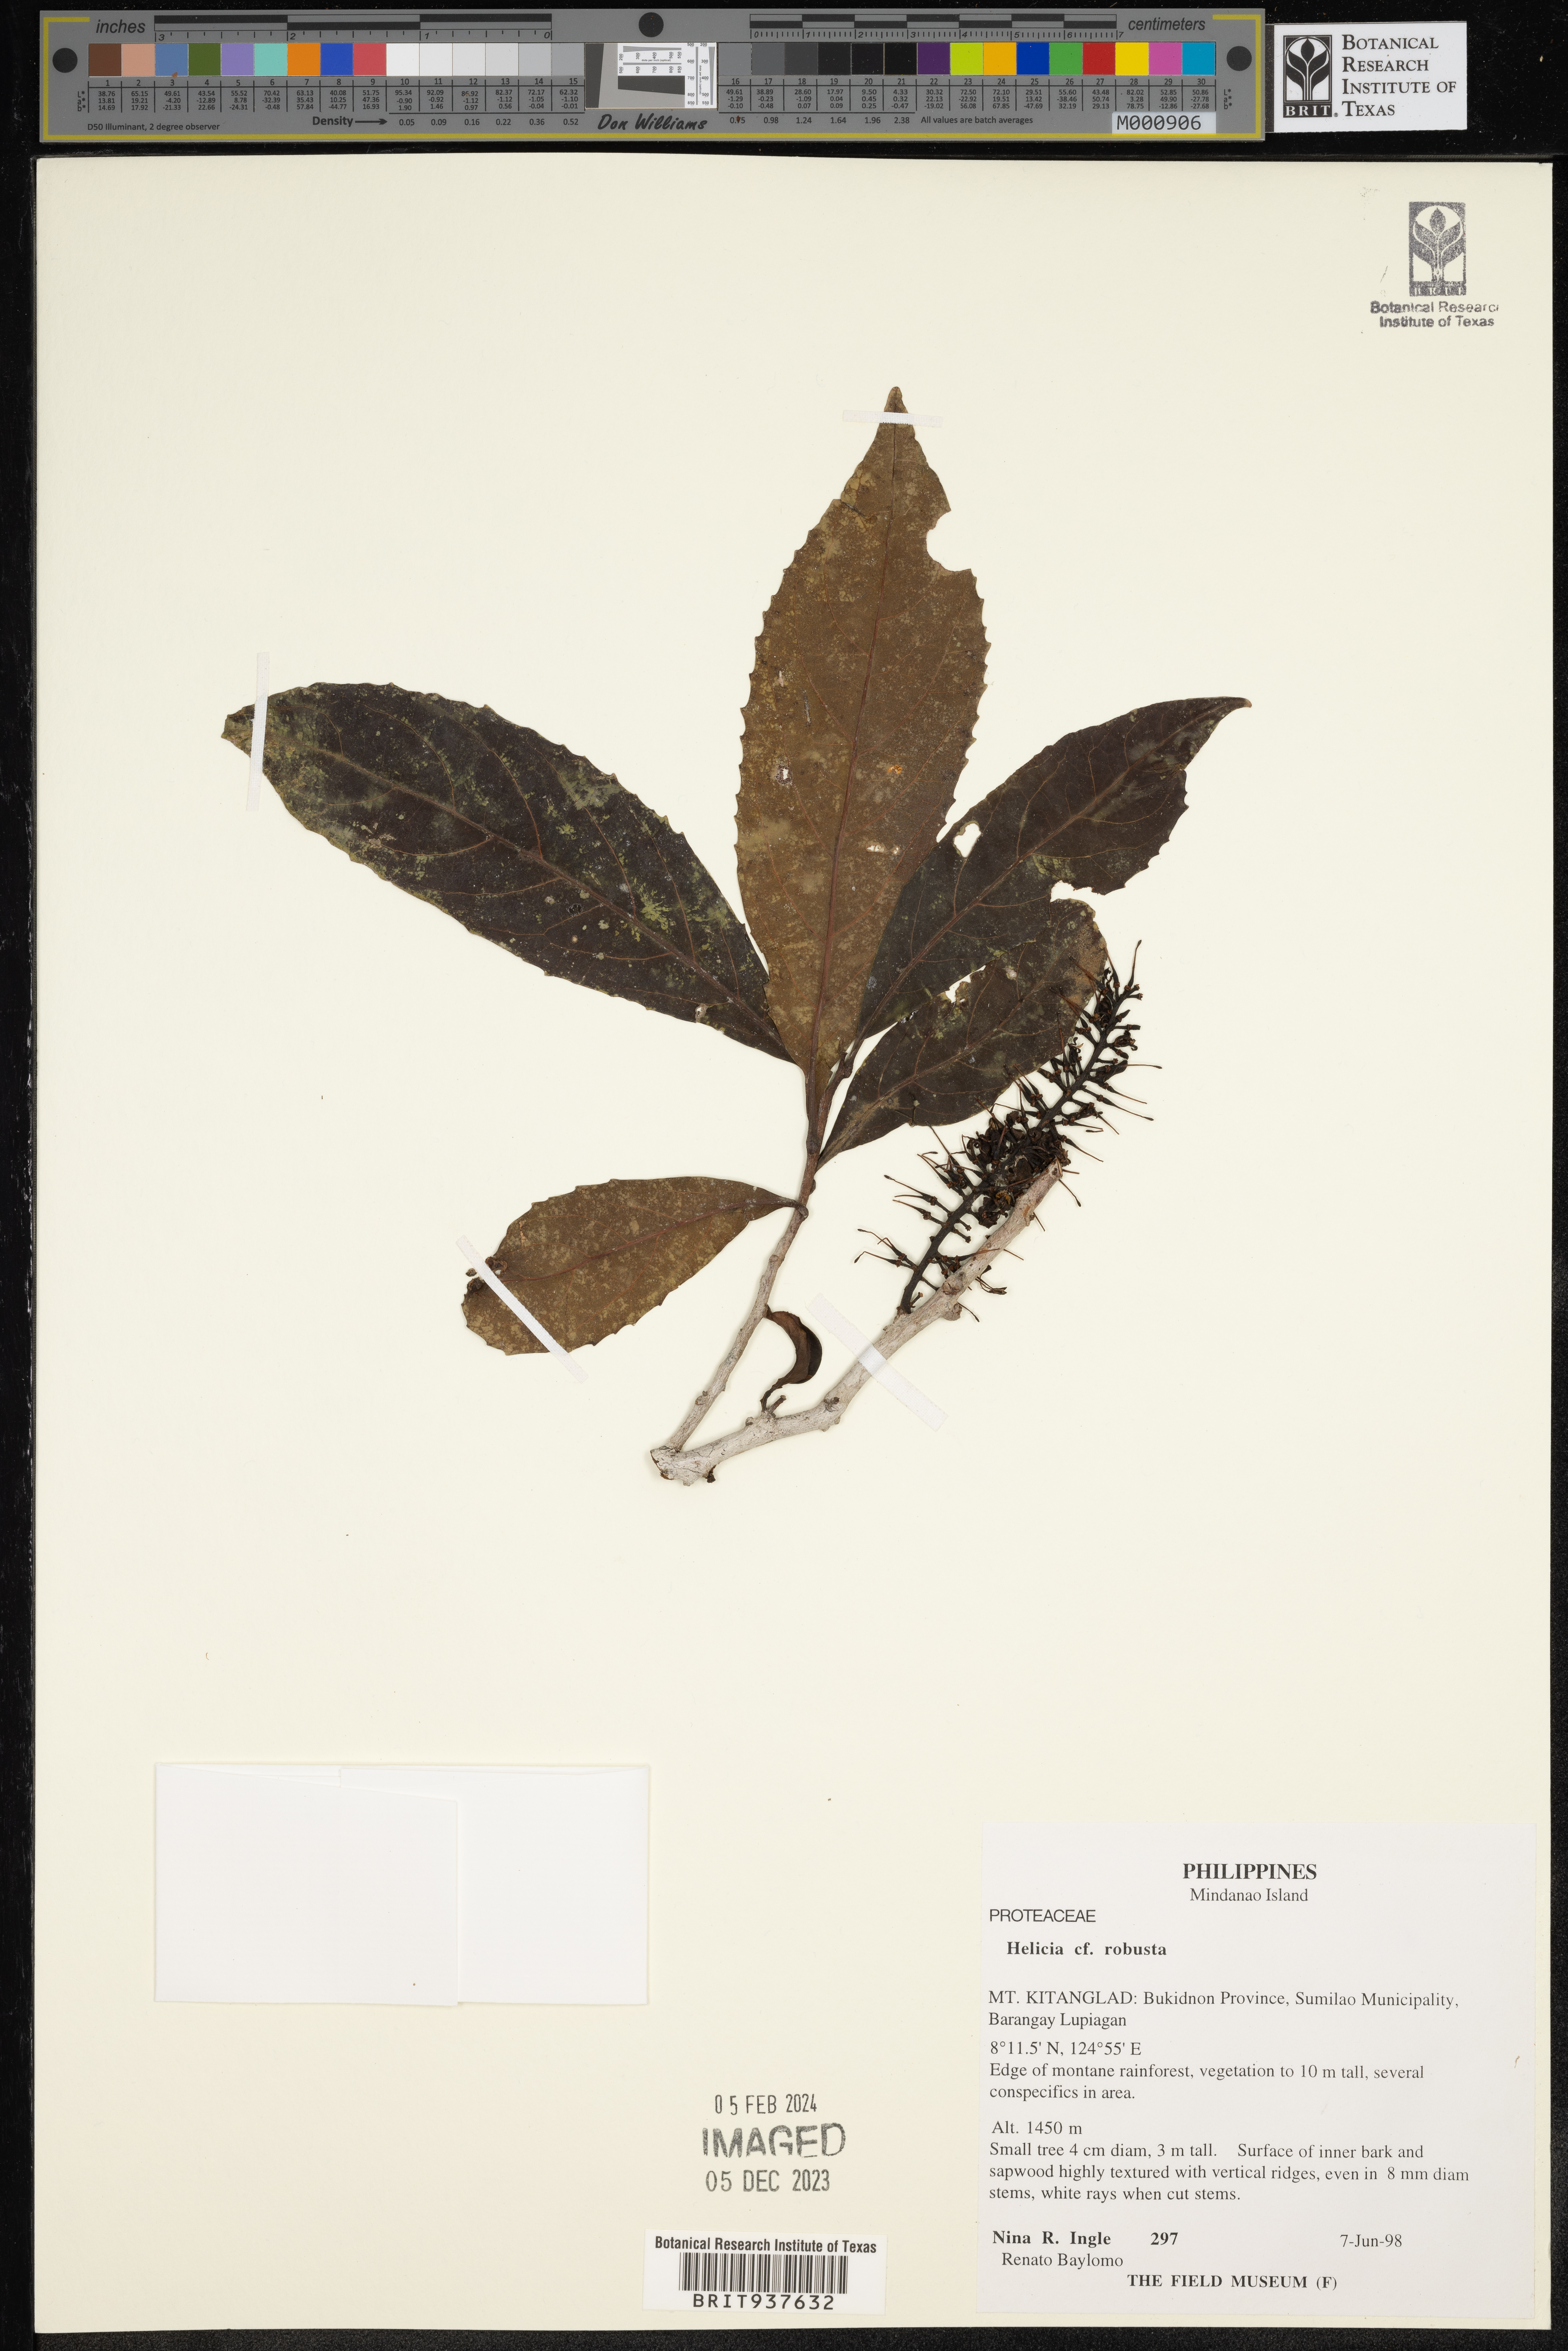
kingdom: Plantae
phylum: Tracheophyta
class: Magnoliopsida
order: Proteales
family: Proteaceae
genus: Helicia
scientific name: Helicia
